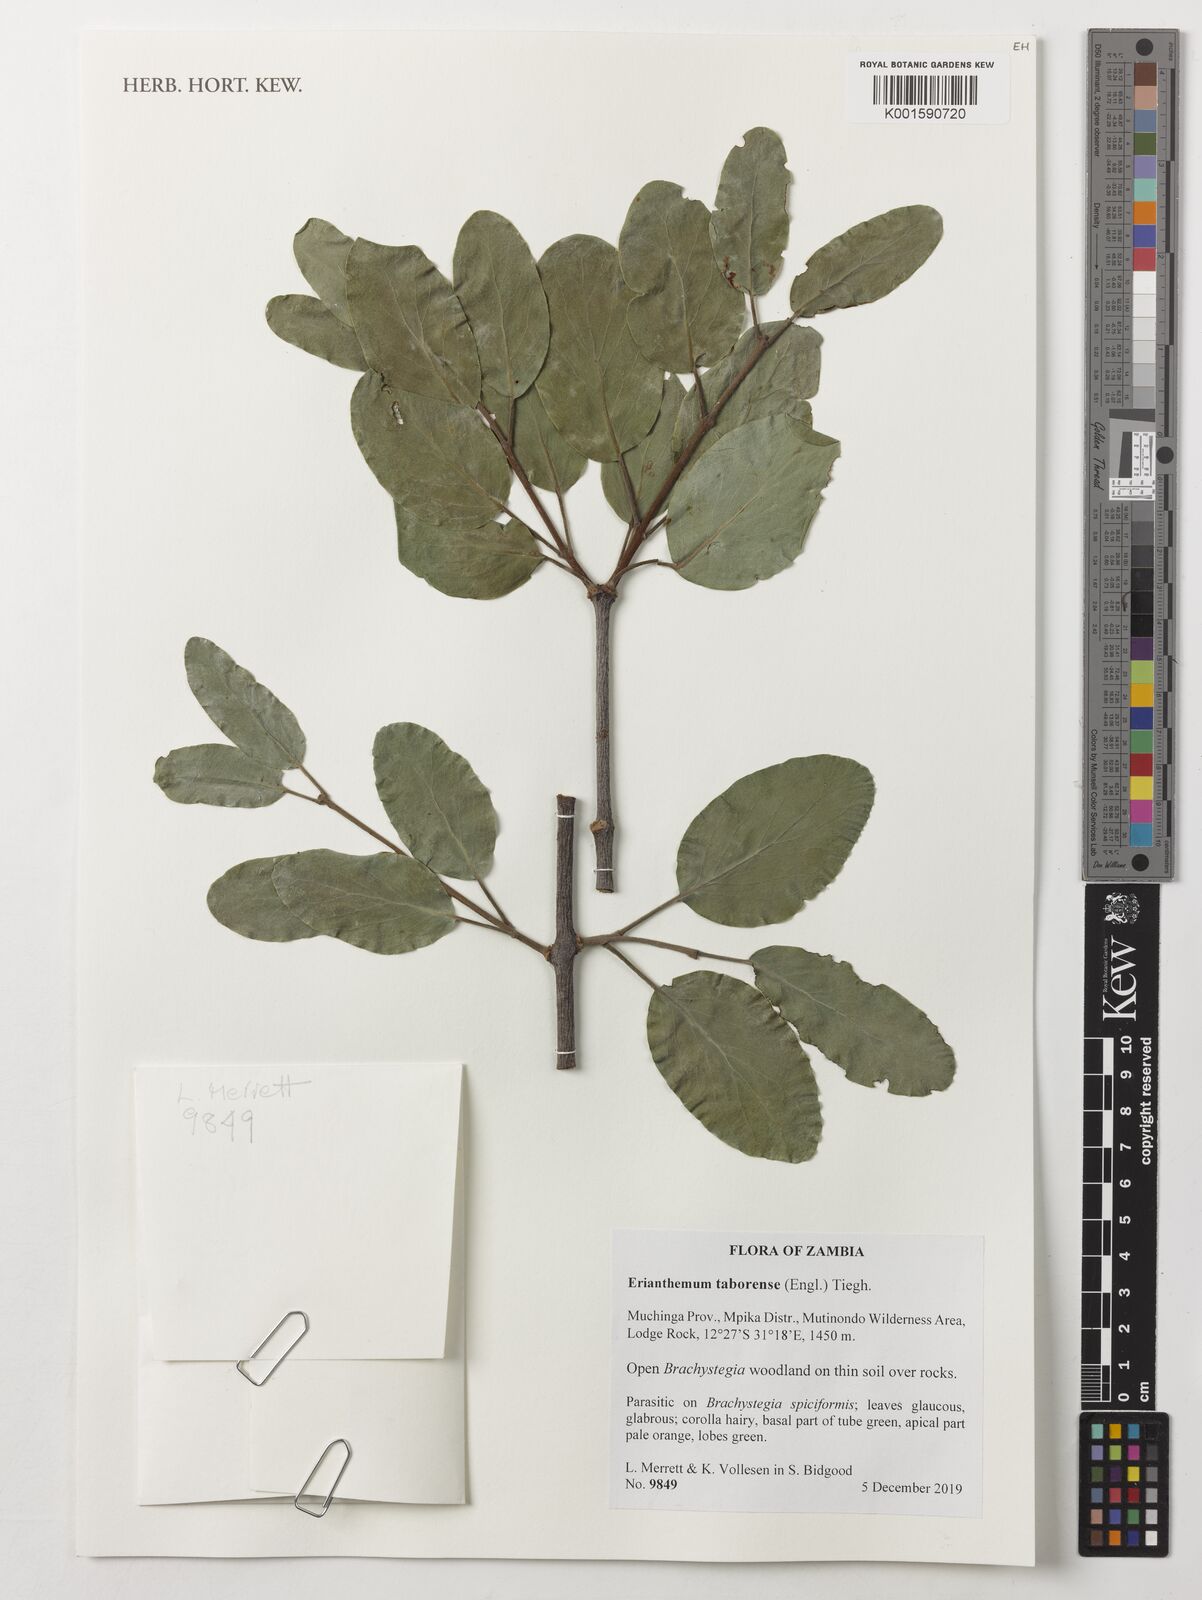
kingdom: Plantae
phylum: Tracheophyta
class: Magnoliopsida
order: Santalales
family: Loranthaceae
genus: Erianthemum
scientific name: Erianthemum taborensis
